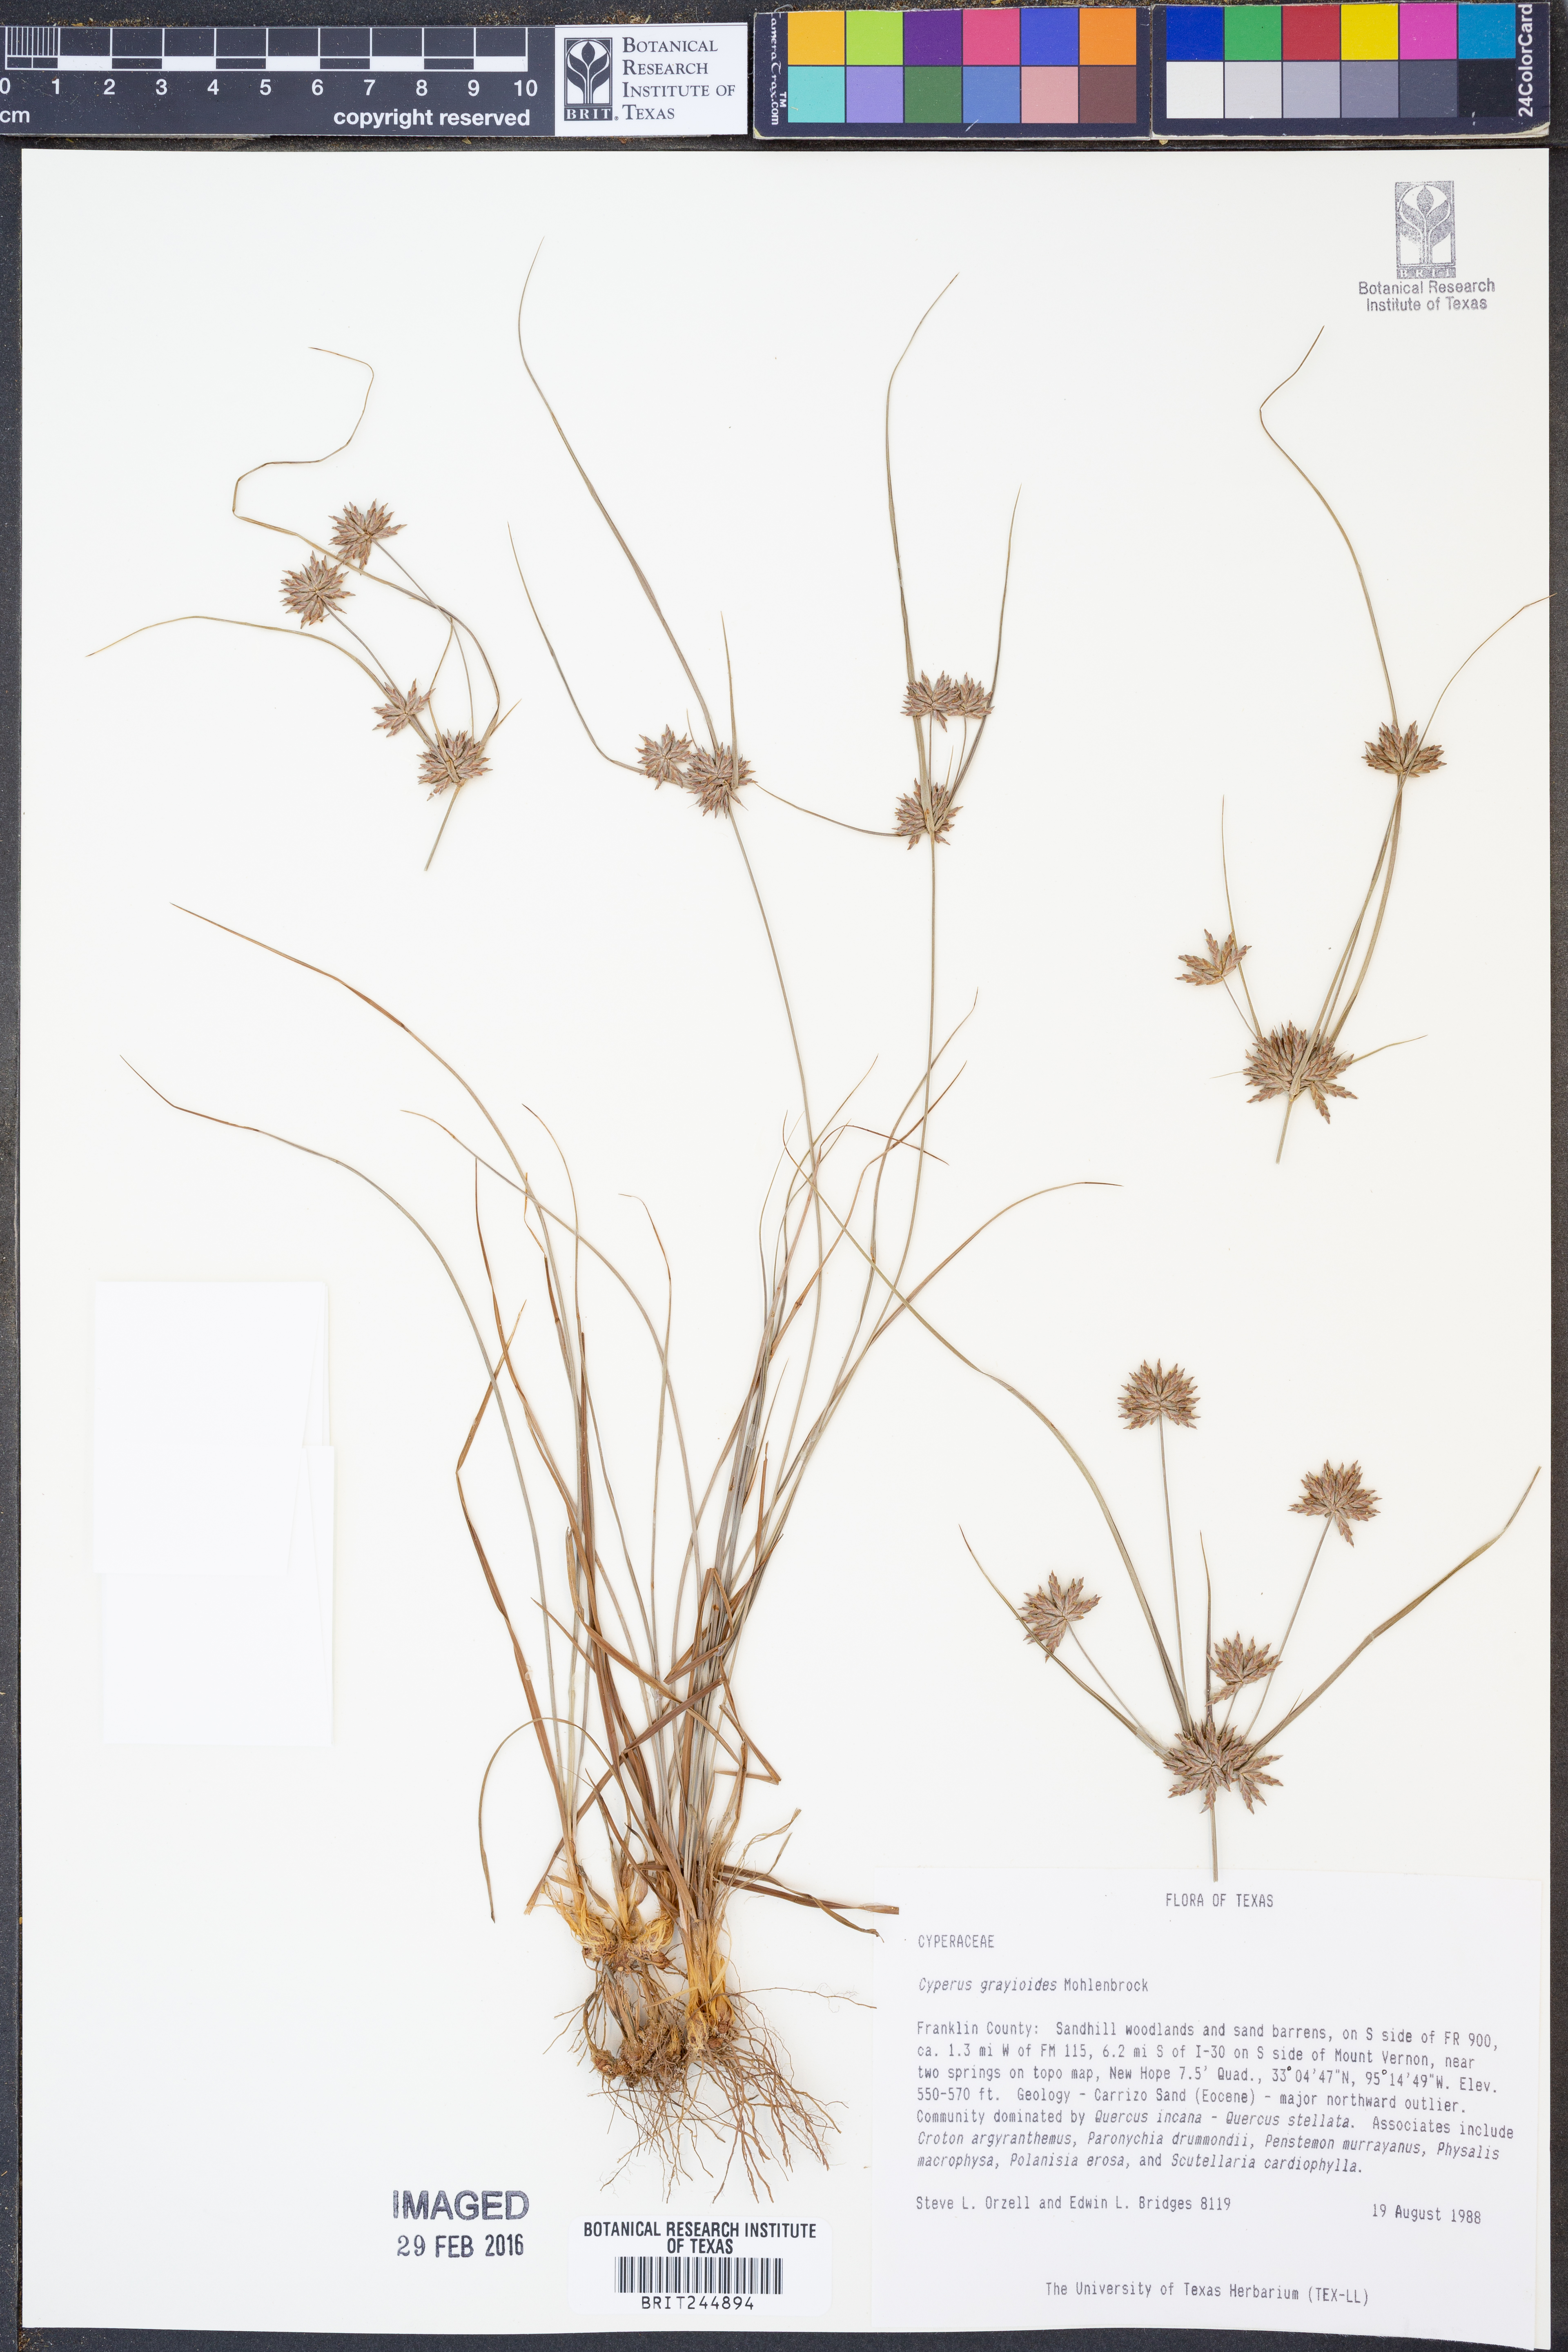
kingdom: Plantae
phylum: Tracheophyta
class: Liliopsida
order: Poales
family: Cyperaceae
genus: Cyperus
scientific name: Cyperus grayioides
